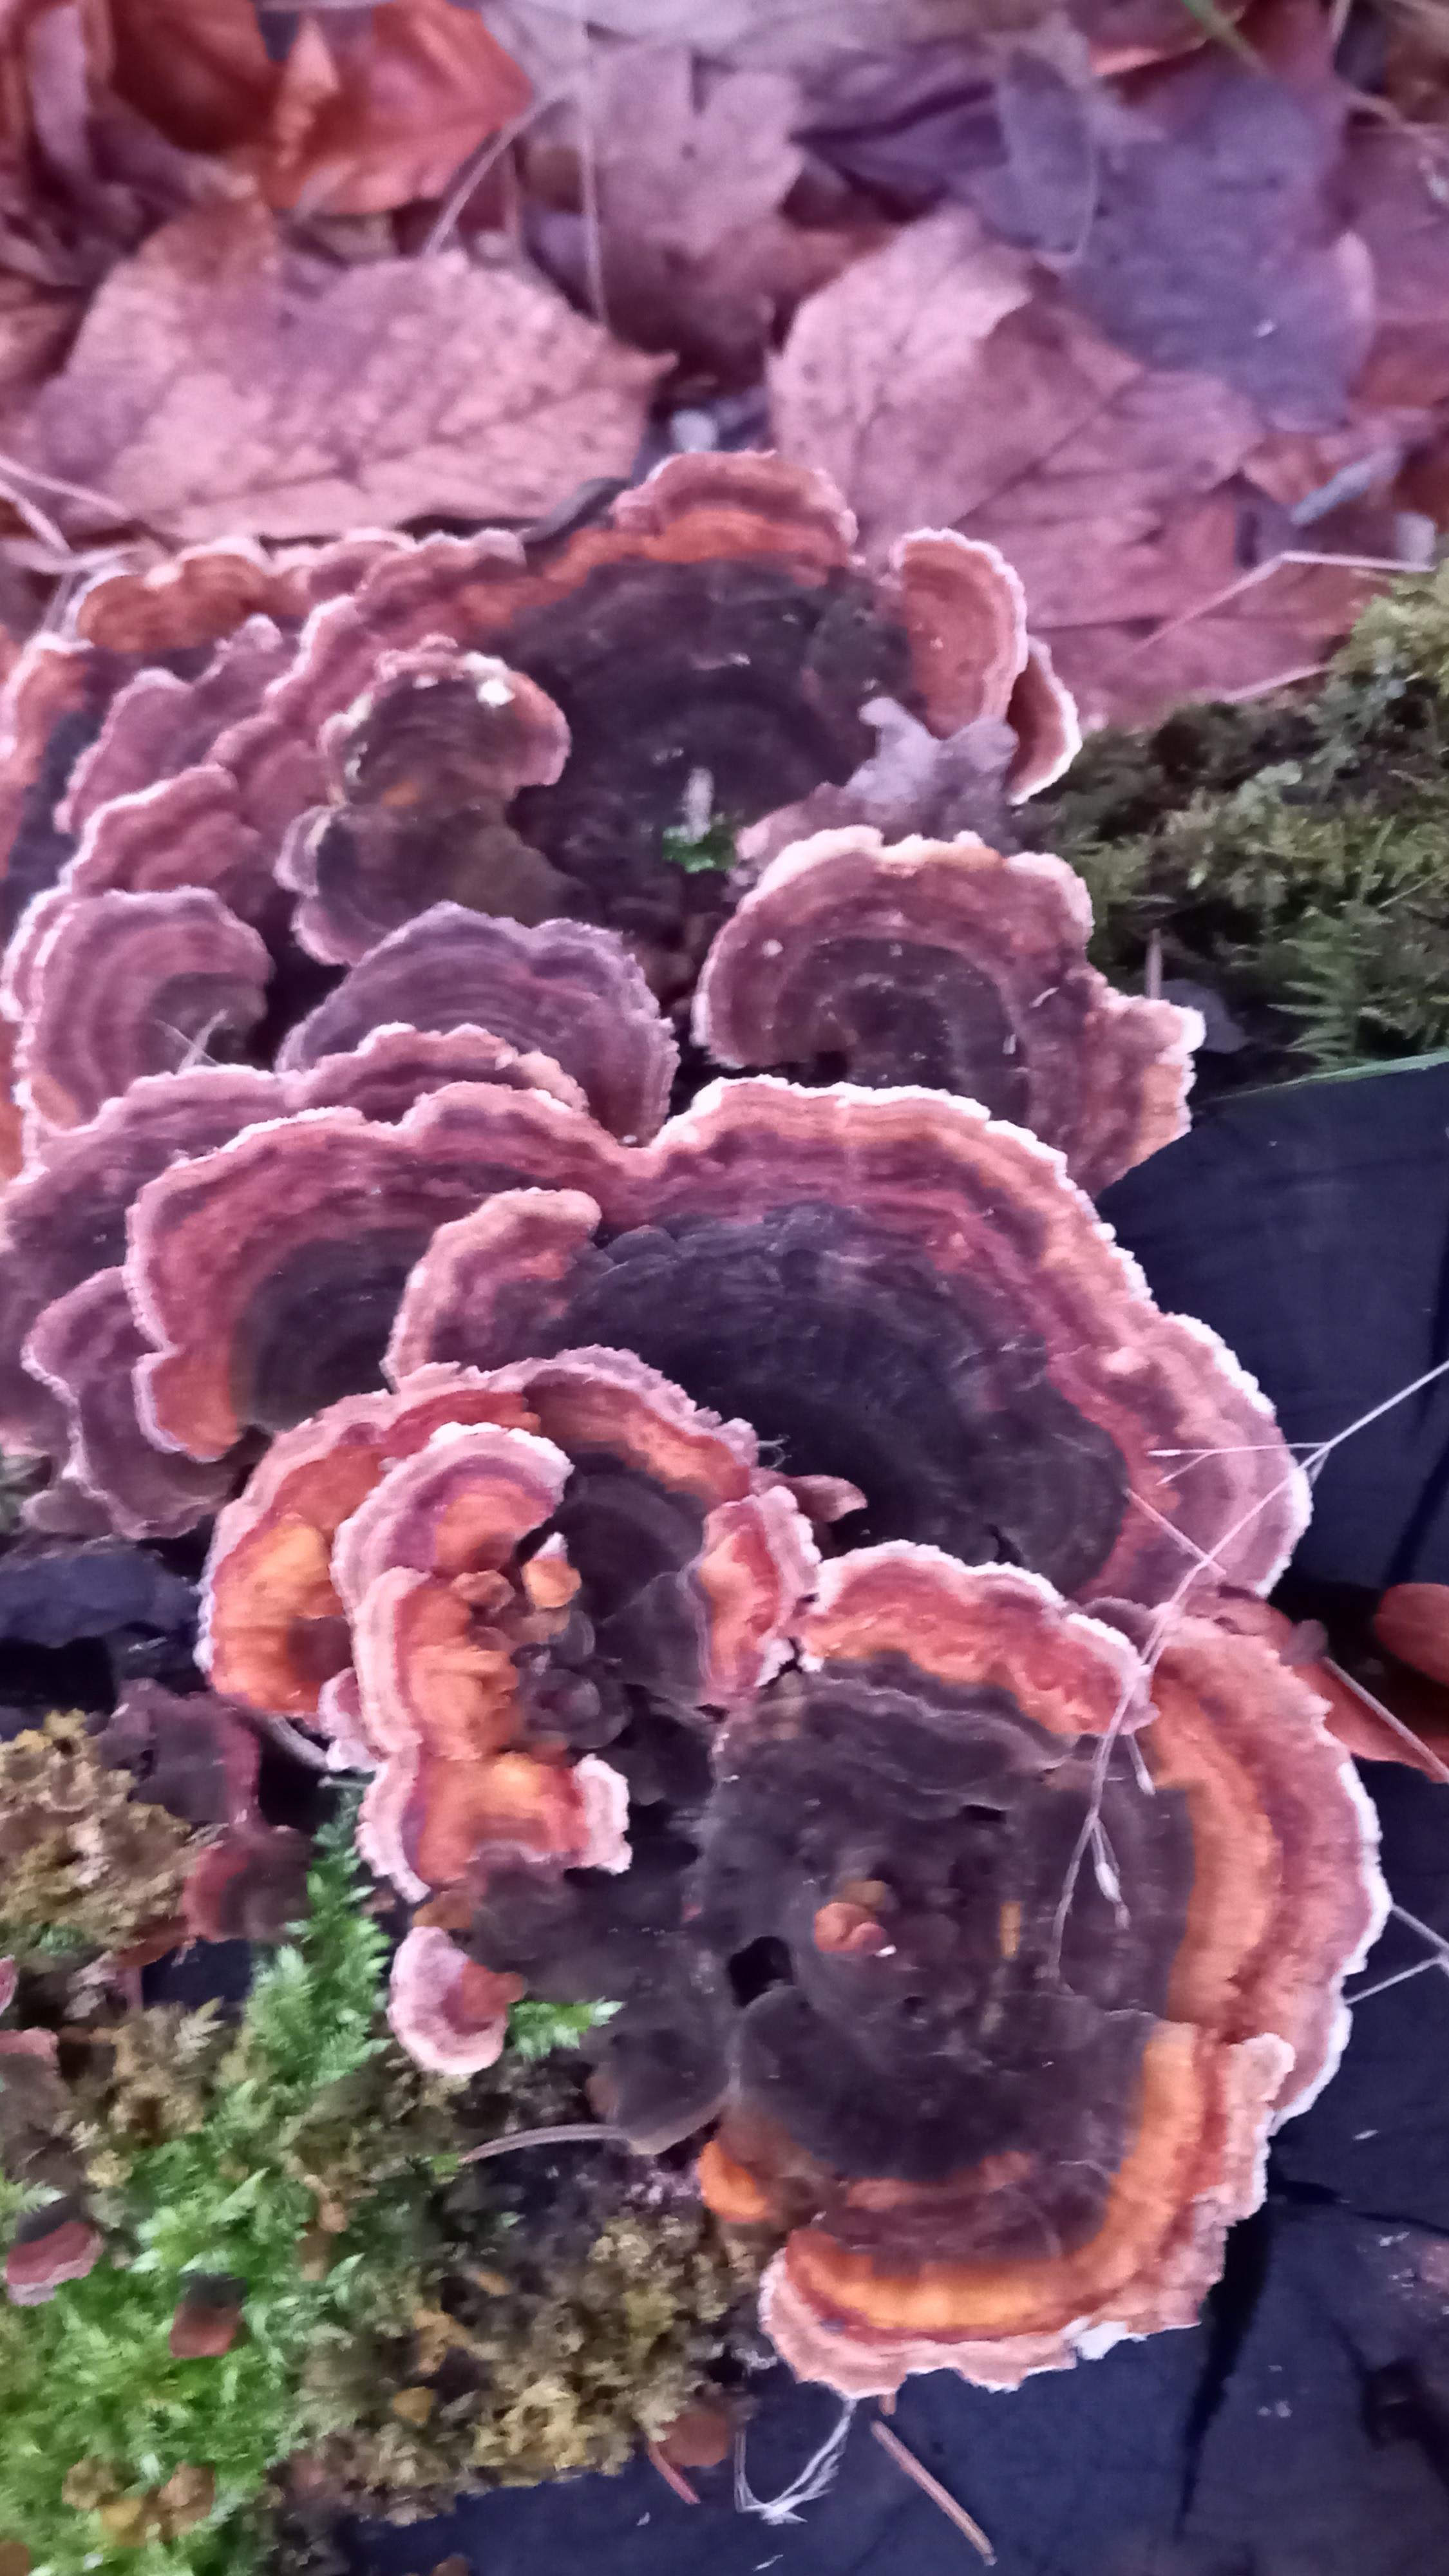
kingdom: Fungi
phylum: Basidiomycota
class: Agaricomycetes
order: Polyporales
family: Polyporaceae
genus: Trametes
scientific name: Trametes versicolor
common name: broget læderporesvamp
